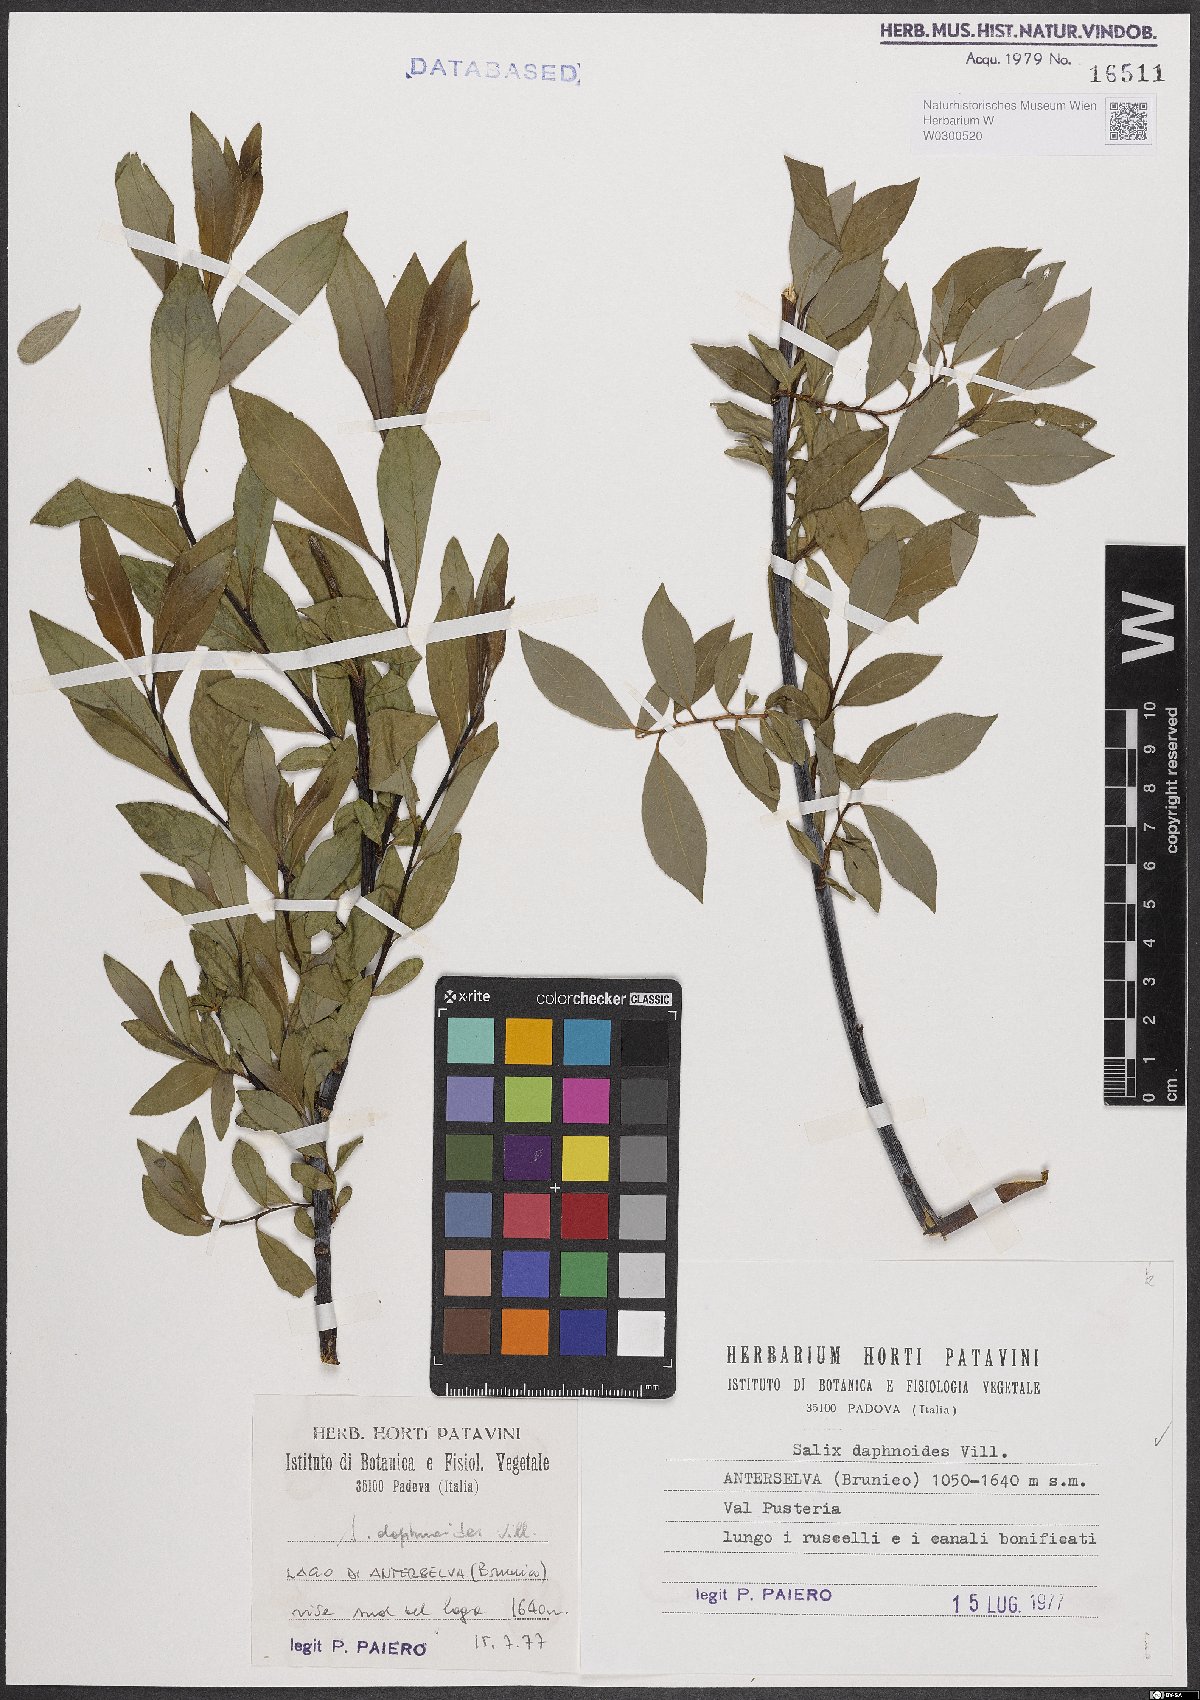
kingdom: Plantae
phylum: Tracheophyta
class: Magnoliopsida
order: Malpighiales
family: Salicaceae
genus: Salix
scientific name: Salix daphnoides
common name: European violet-willow
